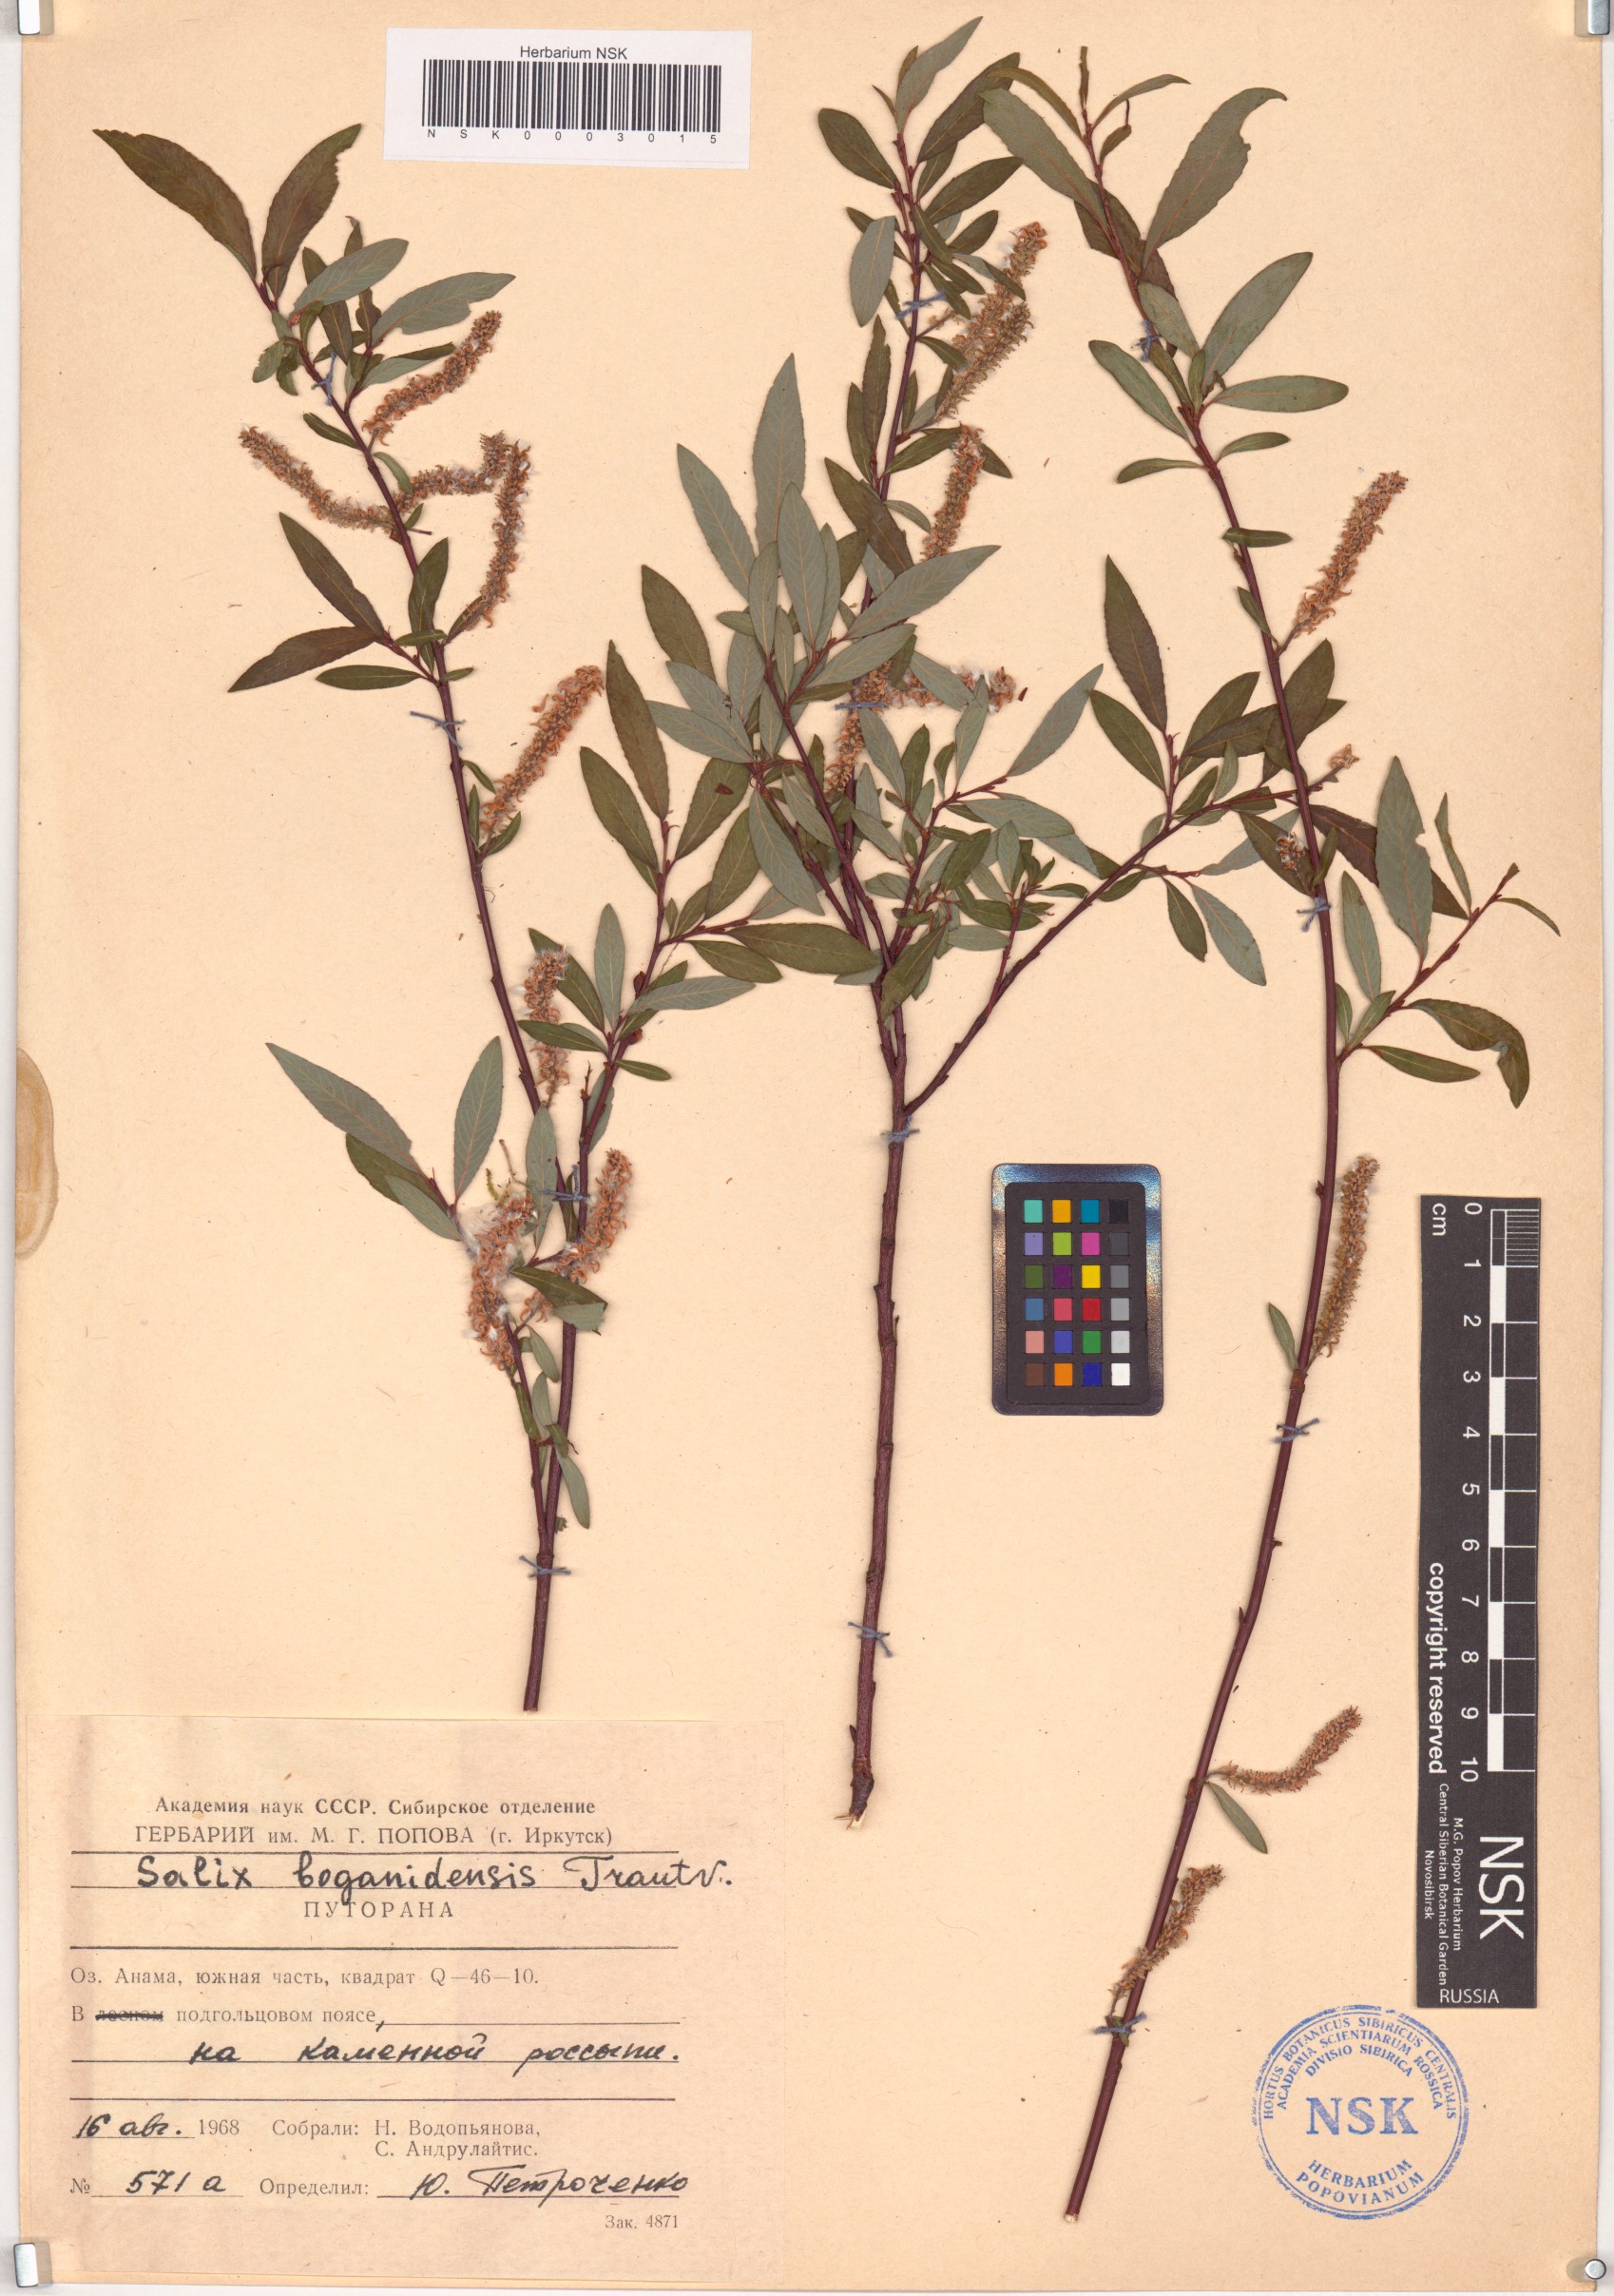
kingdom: Plantae
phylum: Tracheophyta
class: Magnoliopsida
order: Malpighiales
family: Salicaceae
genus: Salix
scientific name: Salix boganidensis
